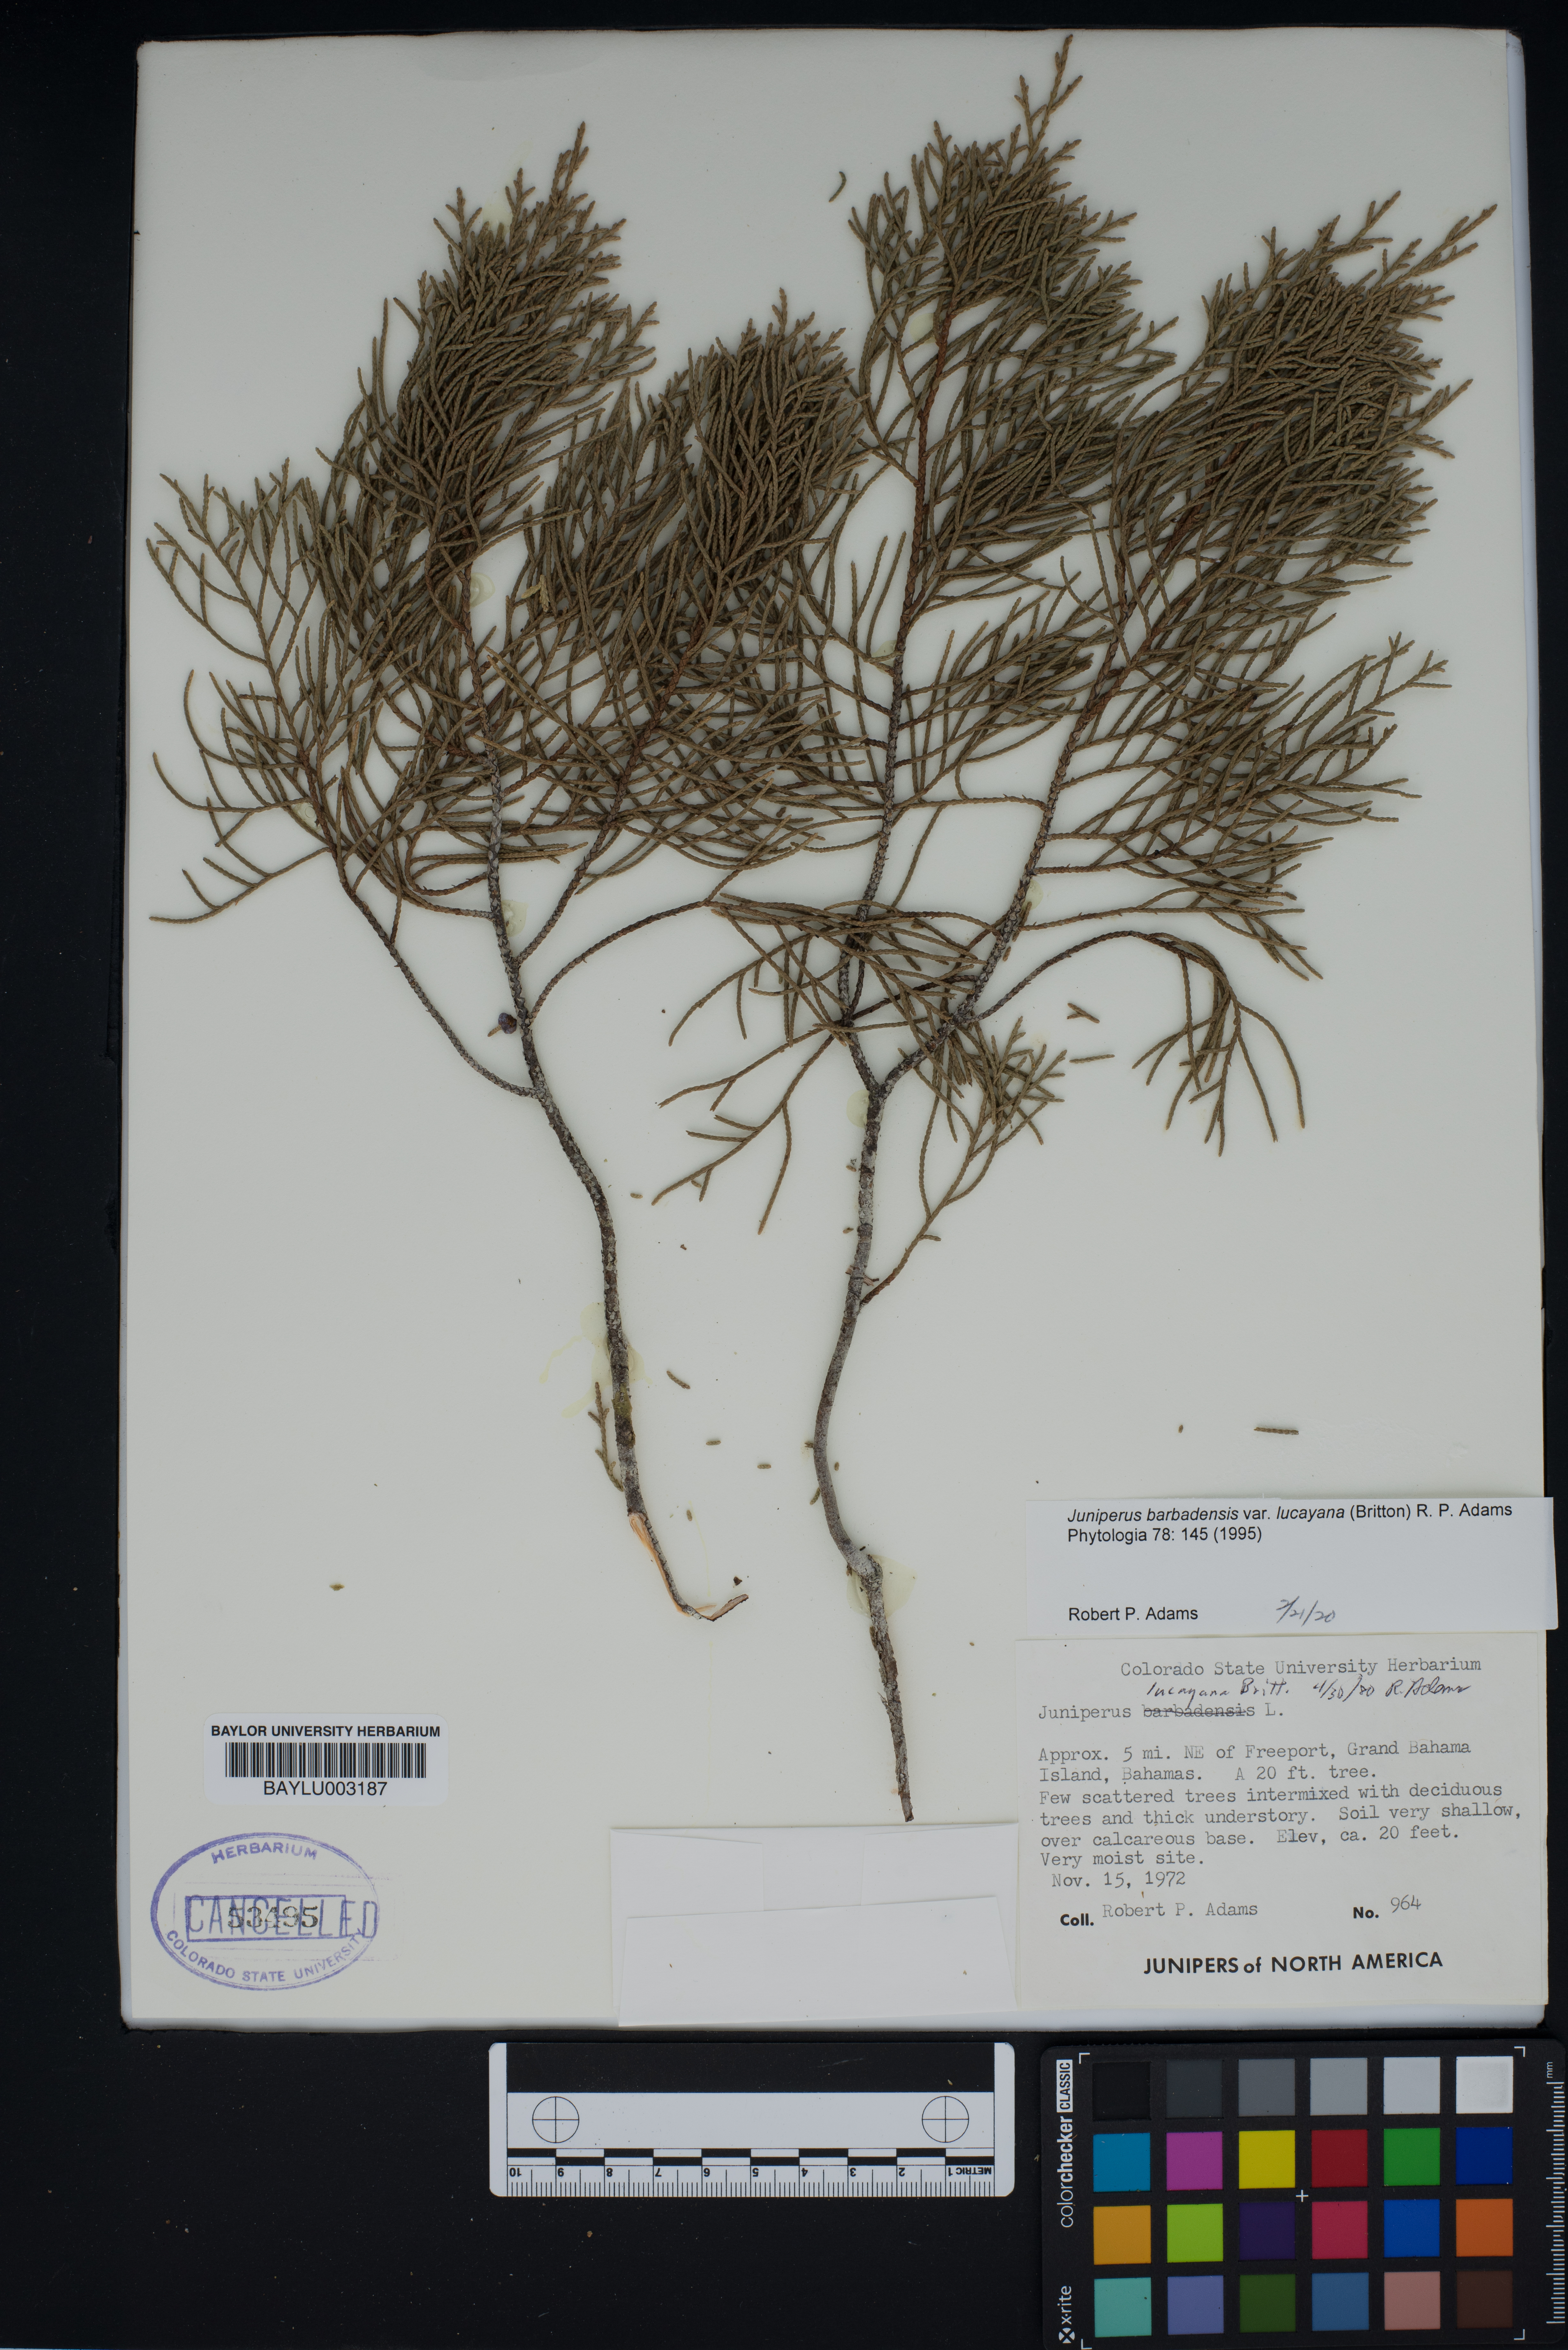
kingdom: Plantae
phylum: Tracheophyta
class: Pinopsida
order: Pinales
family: Cupressaceae
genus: Juniperus
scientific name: Juniperus barbadensis
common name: West indies juniper
